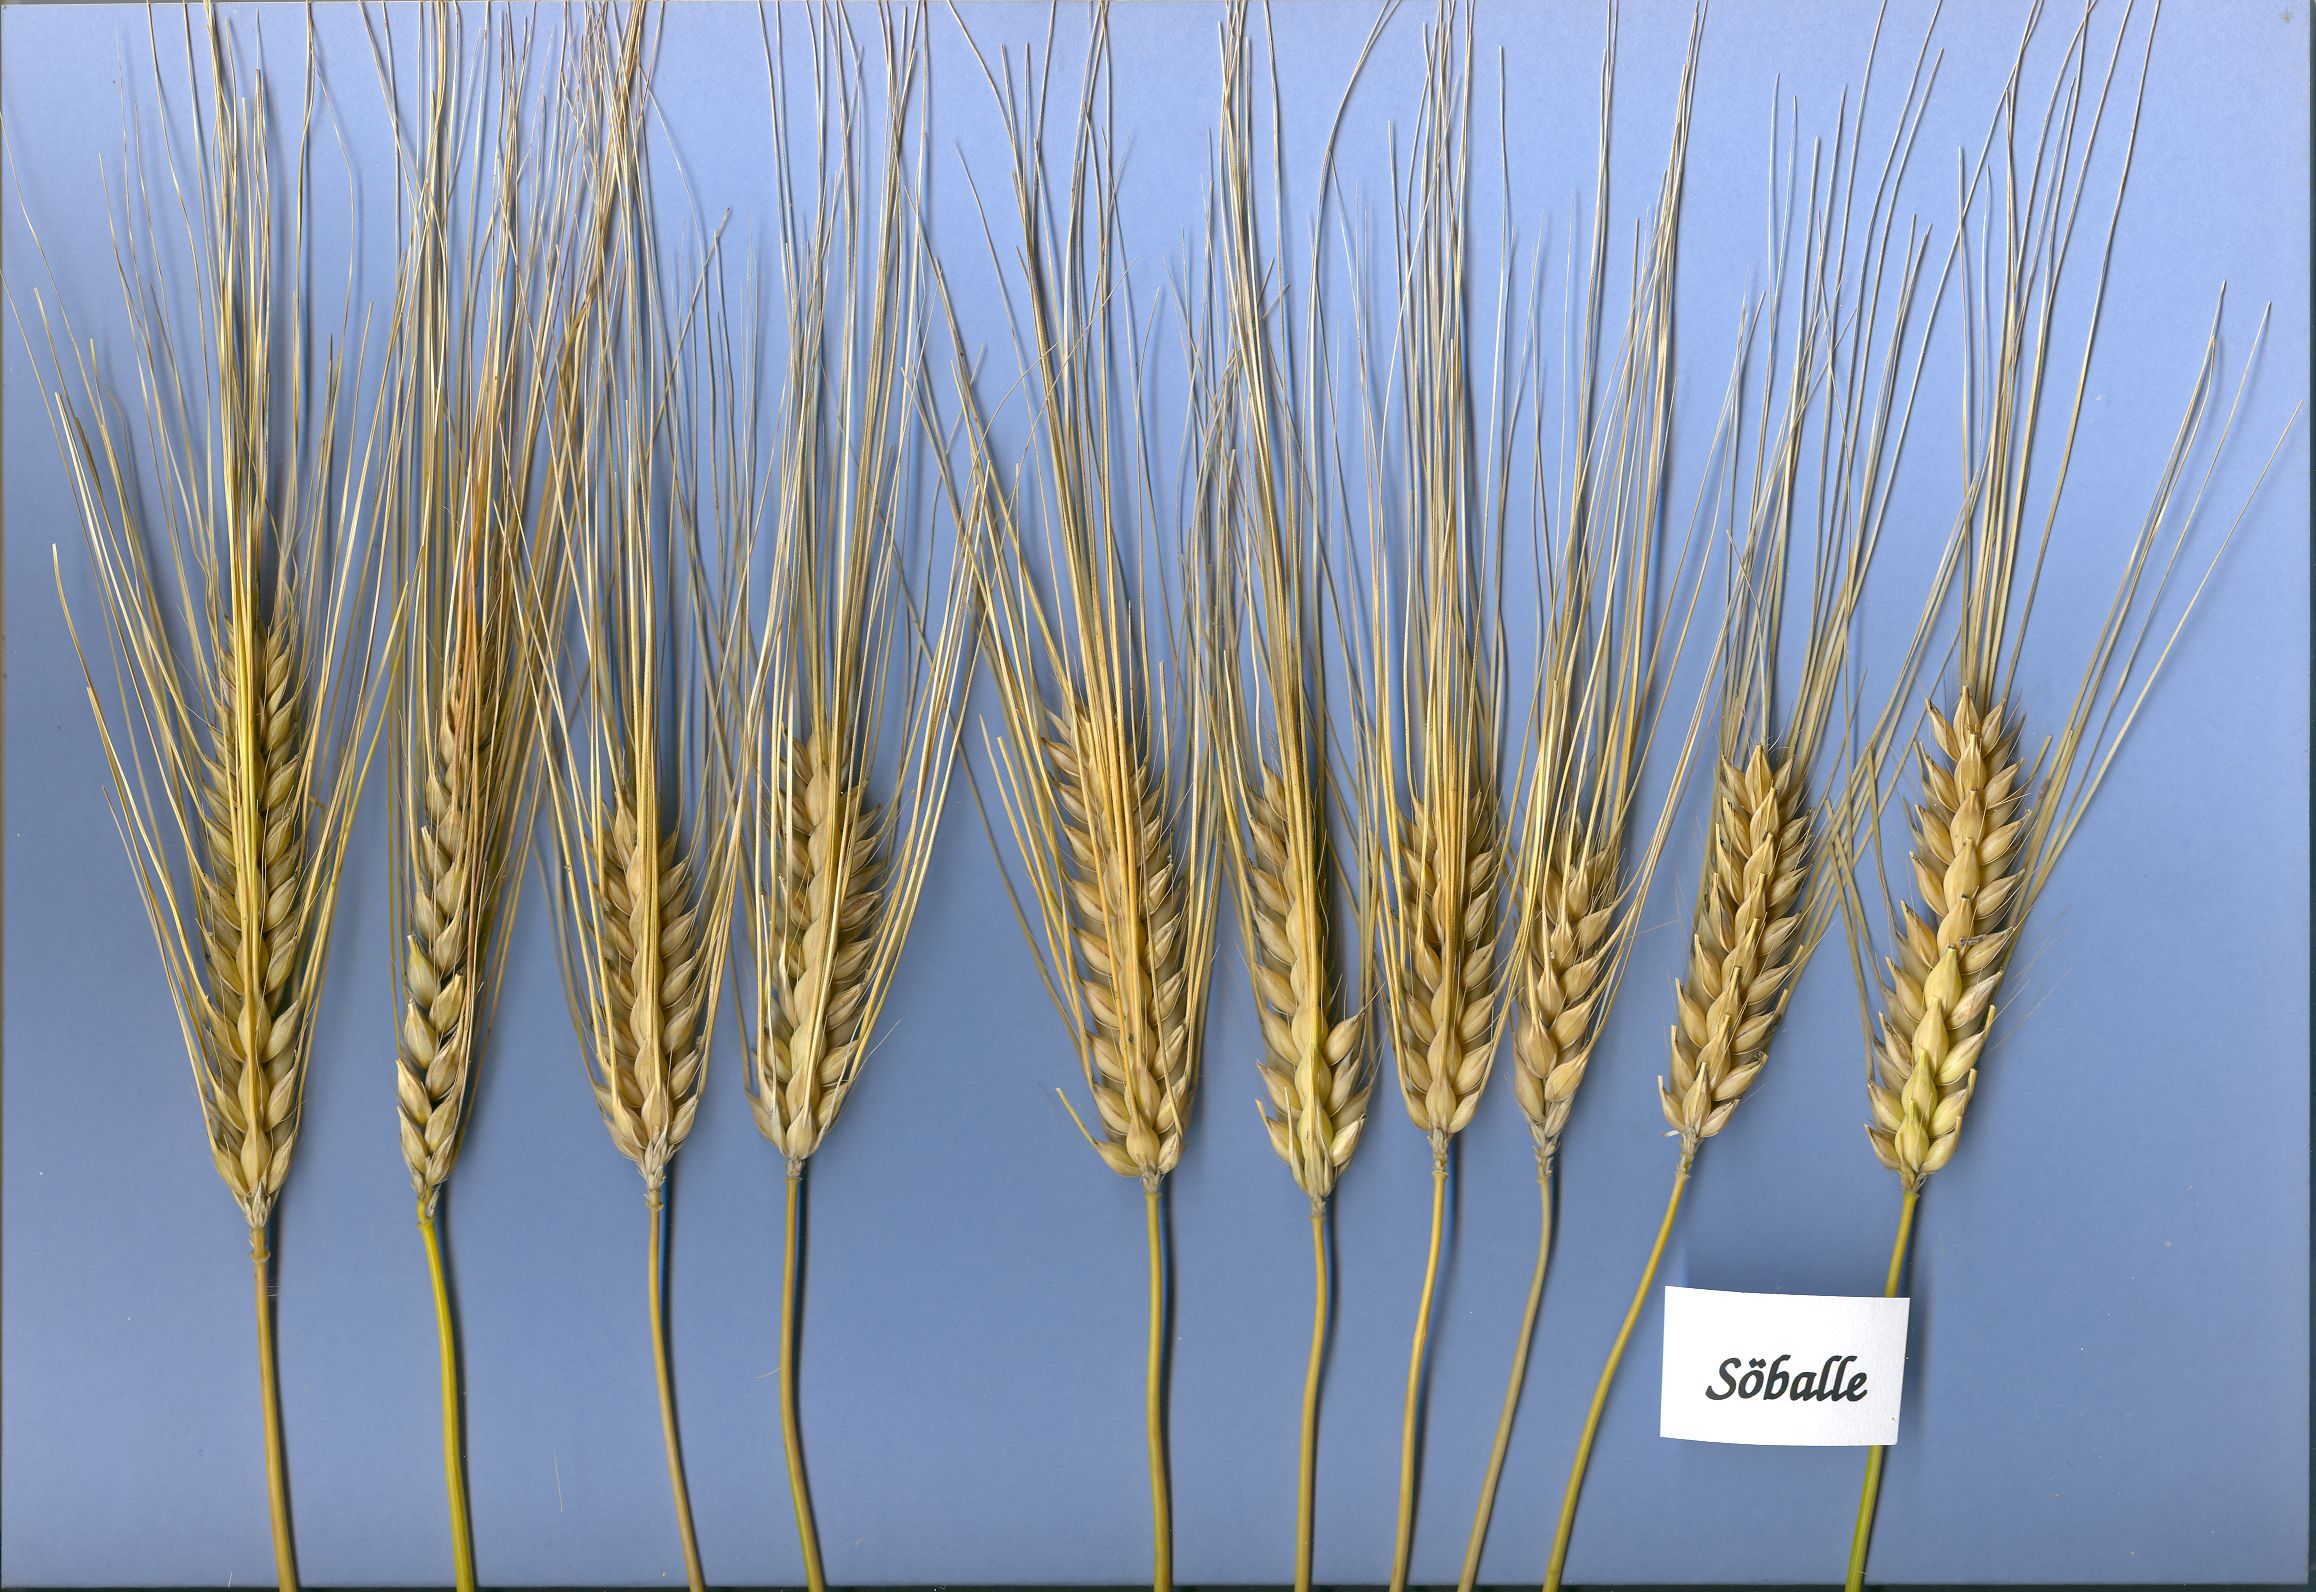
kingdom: Plantae
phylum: Tracheophyta
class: Liliopsida
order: Poales
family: Poaceae
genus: Hordeum
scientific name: Hordeum vulgare
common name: Common barley
